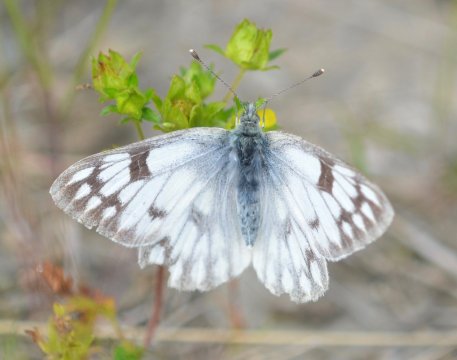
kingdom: Animalia
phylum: Arthropoda
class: Insecta
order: Lepidoptera
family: Pieridae
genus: Pontia
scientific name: Pontia occidentalis
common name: Western White
